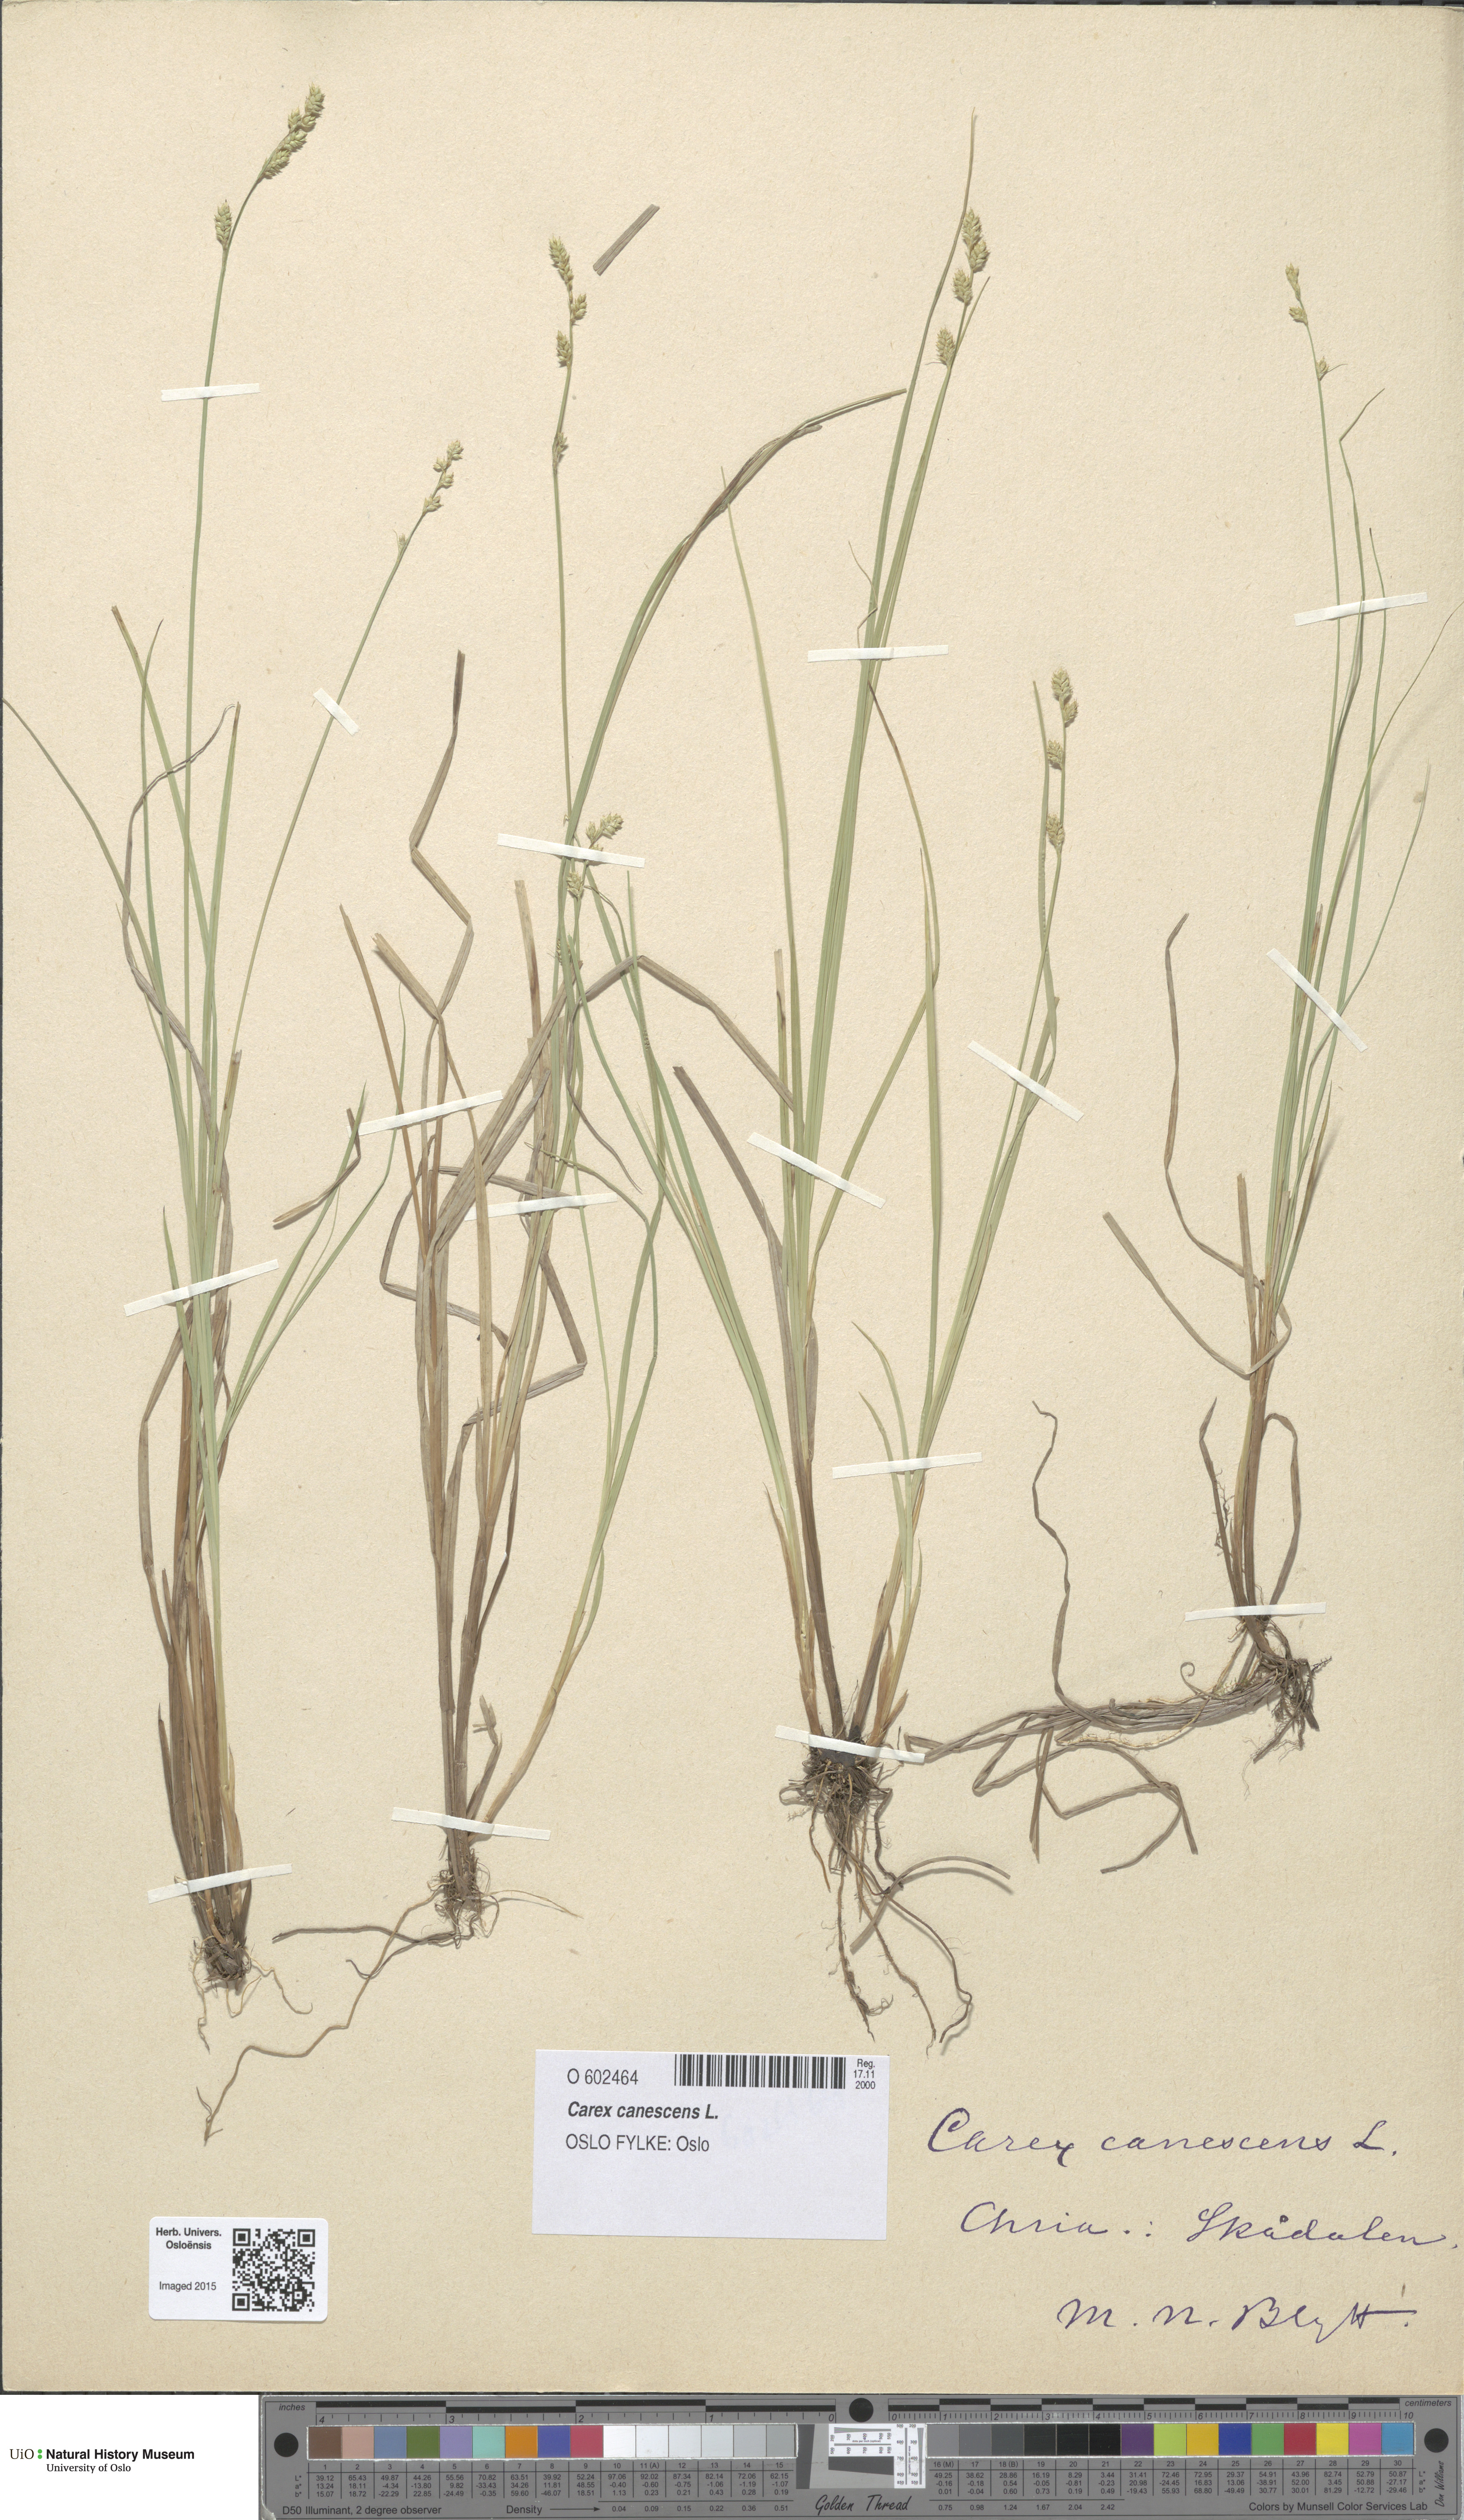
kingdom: Plantae
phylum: Tracheophyta
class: Liliopsida
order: Poales
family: Cyperaceae
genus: Carex
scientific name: Carex canescens
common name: White sedge
